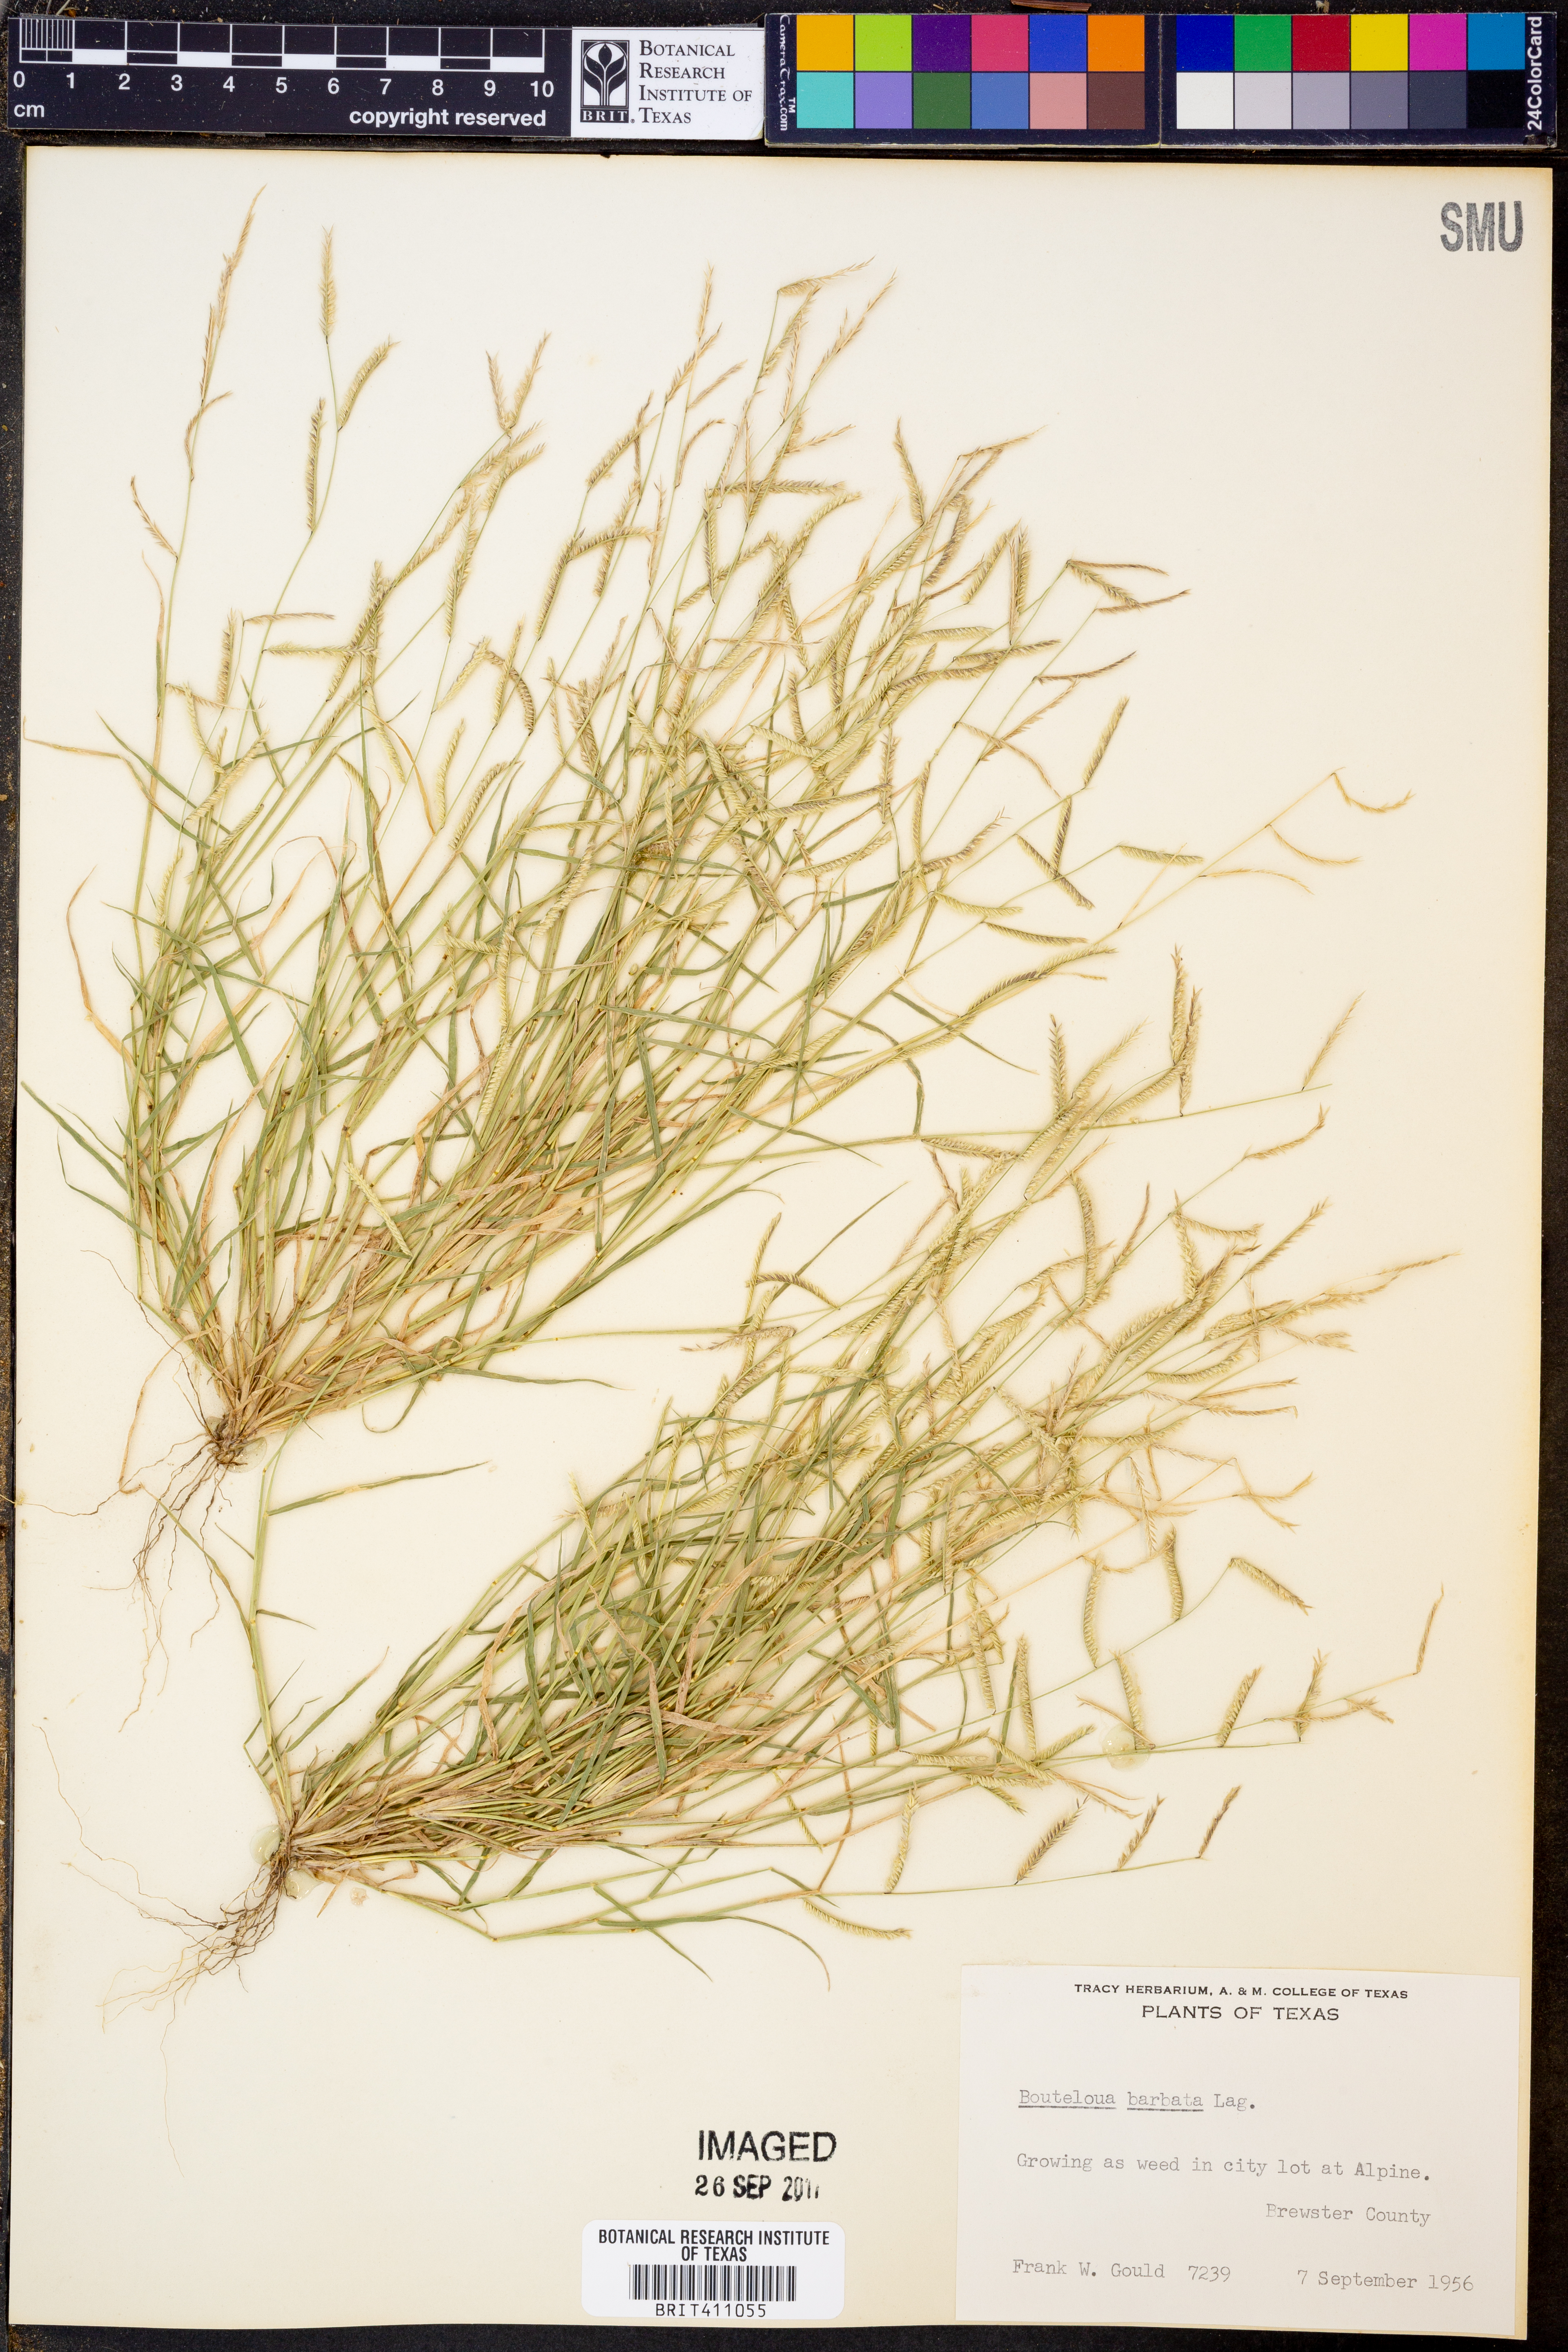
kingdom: Plantae
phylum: Tracheophyta
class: Liliopsida
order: Poales
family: Poaceae
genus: Bouteloua
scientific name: Bouteloua barbata
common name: Six-weeks grama
